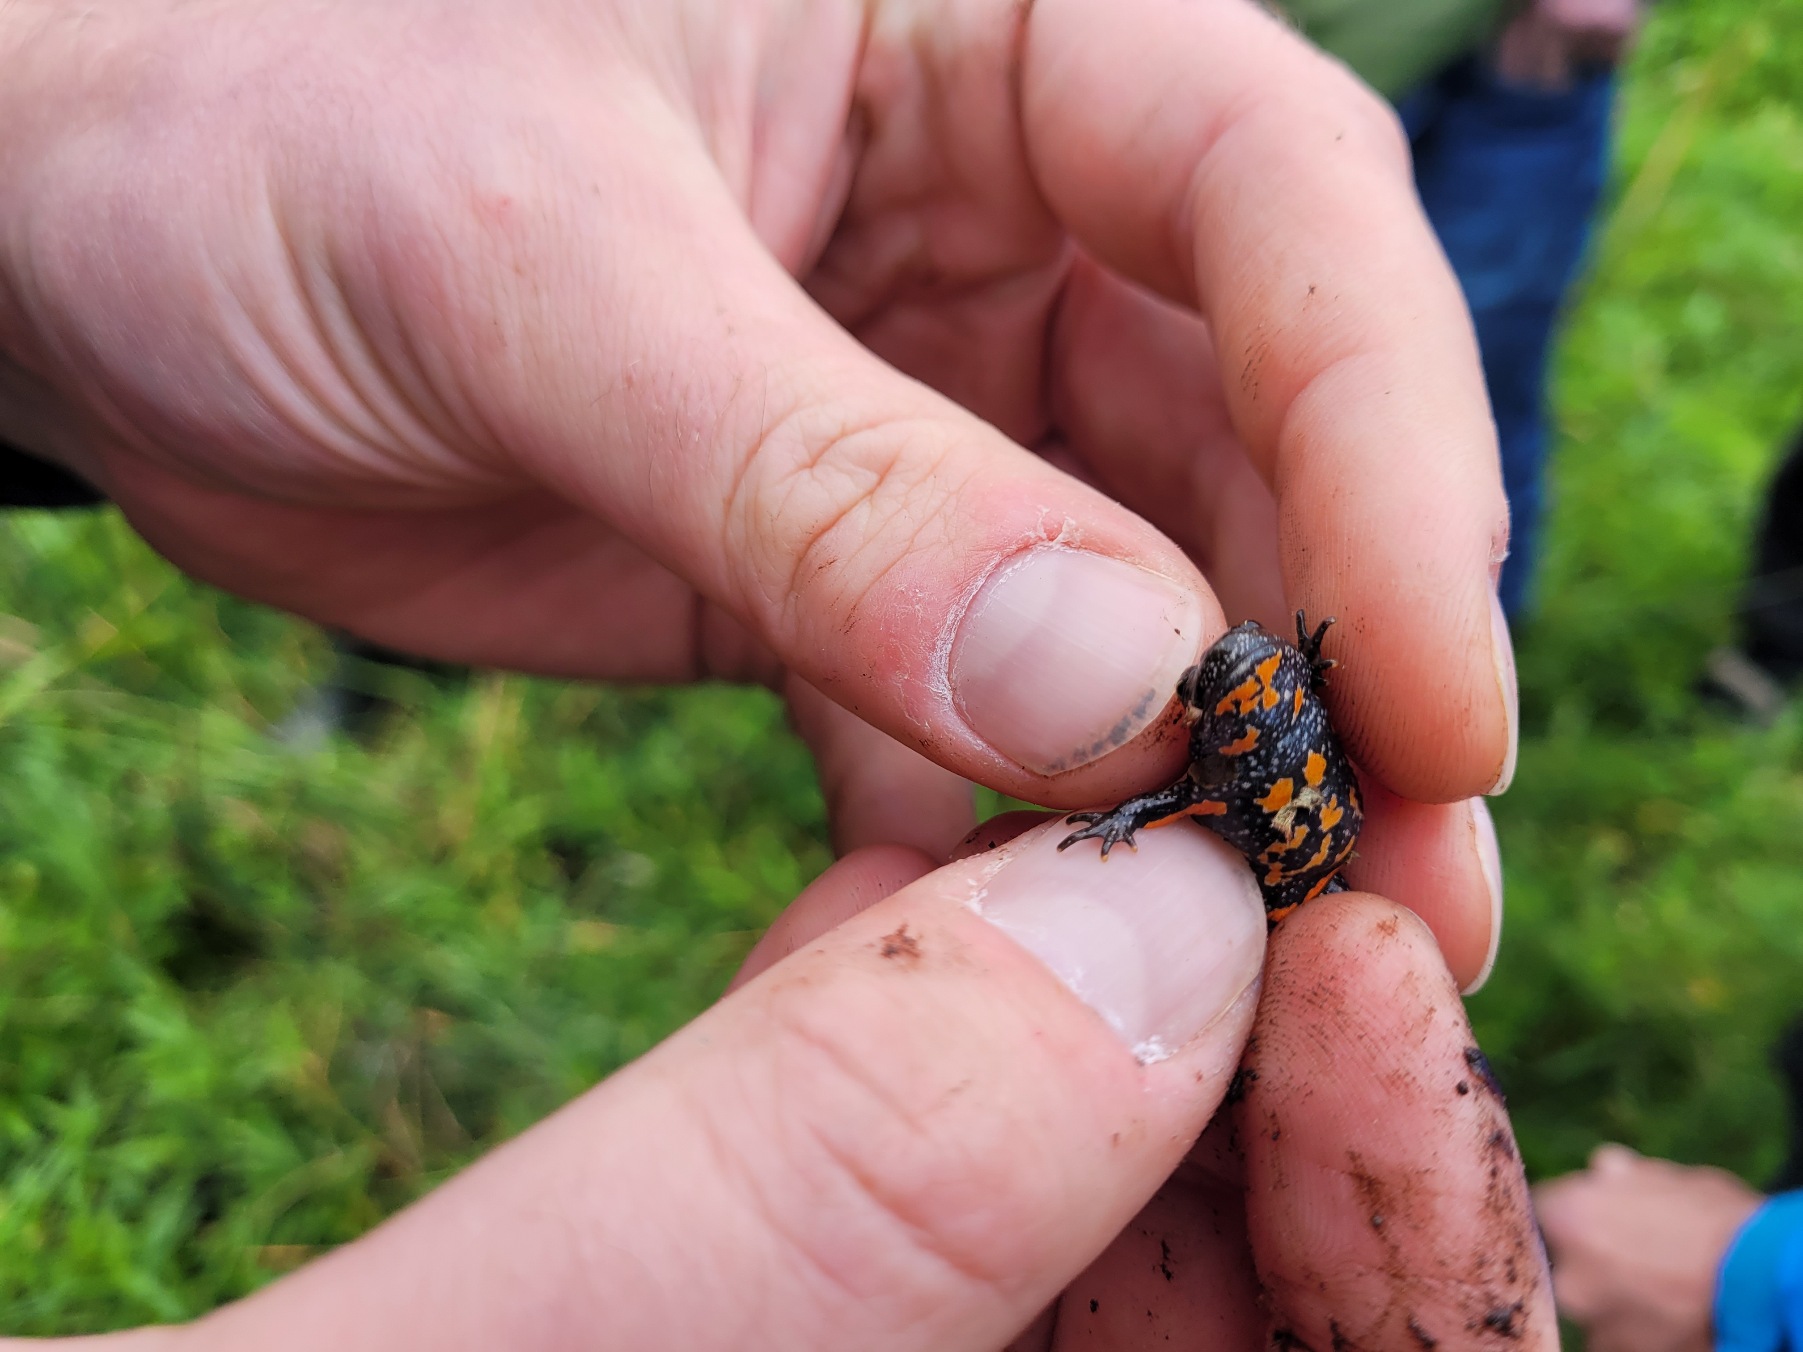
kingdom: Animalia
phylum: Chordata
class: Amphibia
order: Anura
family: Bombinatoridae
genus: Bombina
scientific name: Bombina bombina
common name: Klokkefrø
